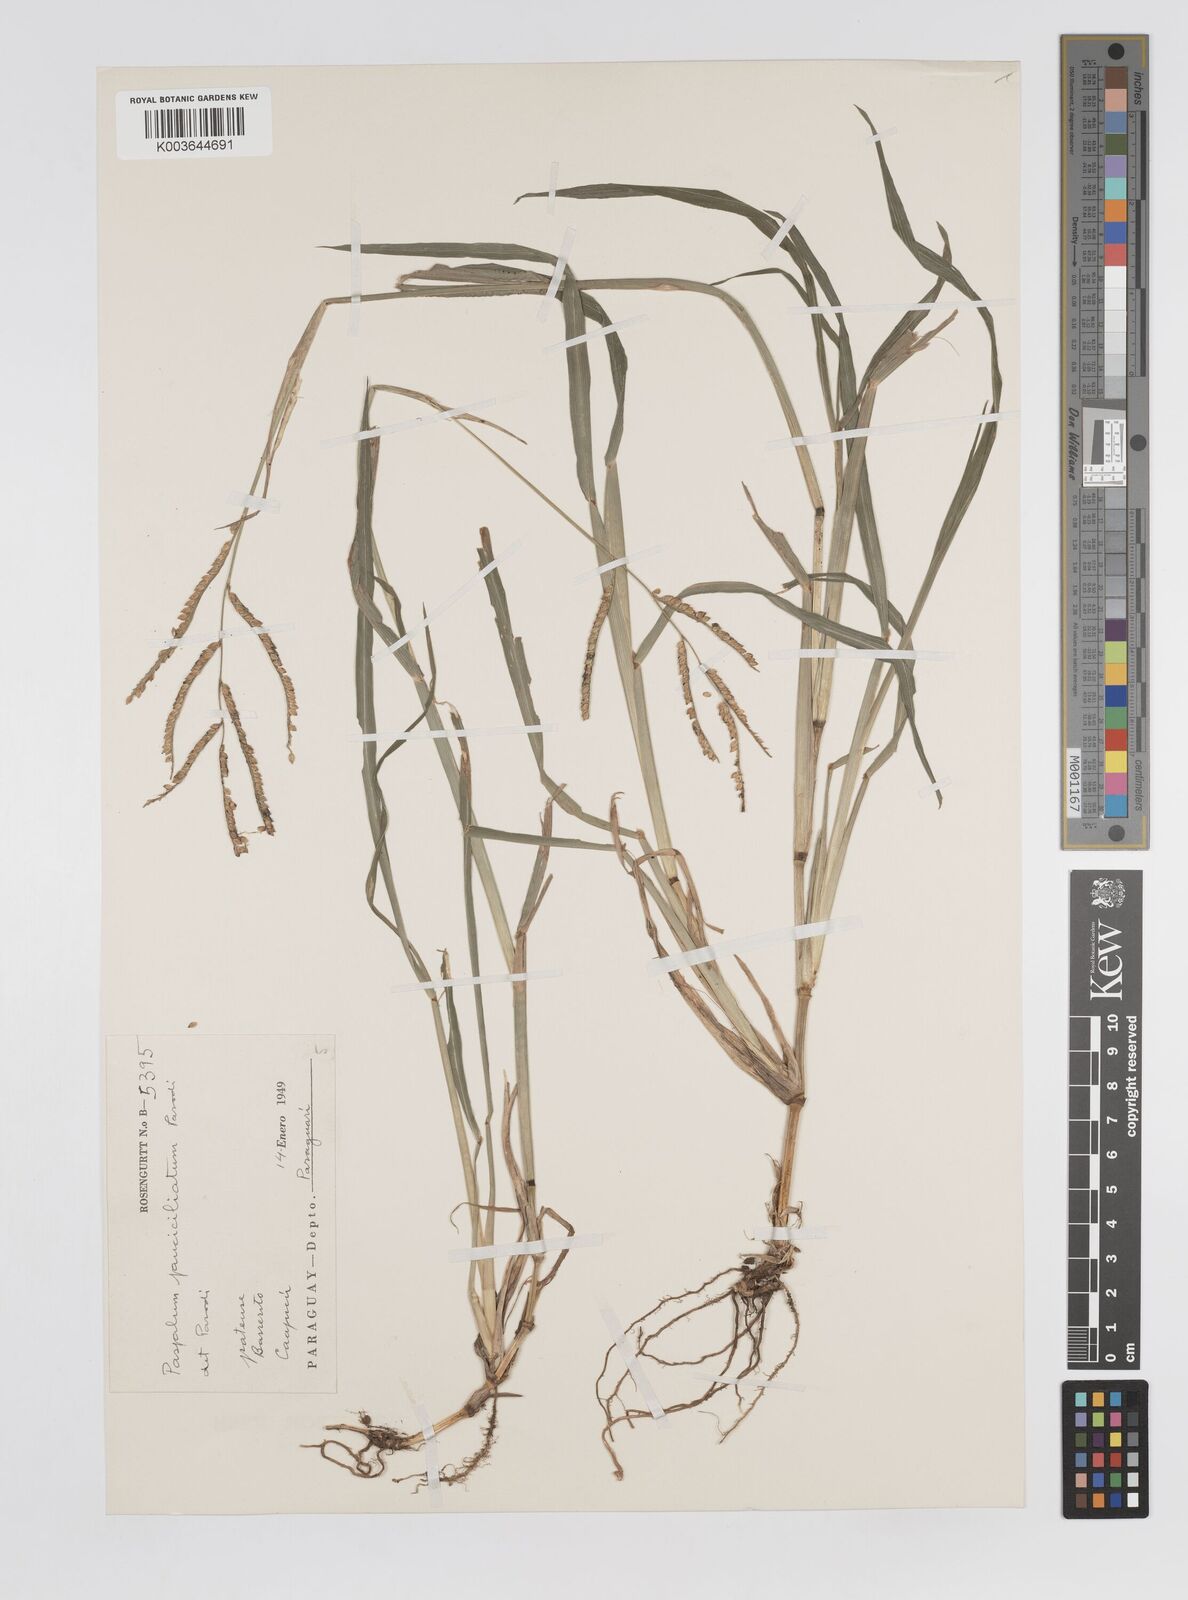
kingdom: Plantae
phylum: Tracheophyta
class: Liliopsida
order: Poales
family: Poaceae
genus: Paspalum
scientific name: Paspalum pauciciliatum
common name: Prostrate dallis grass
